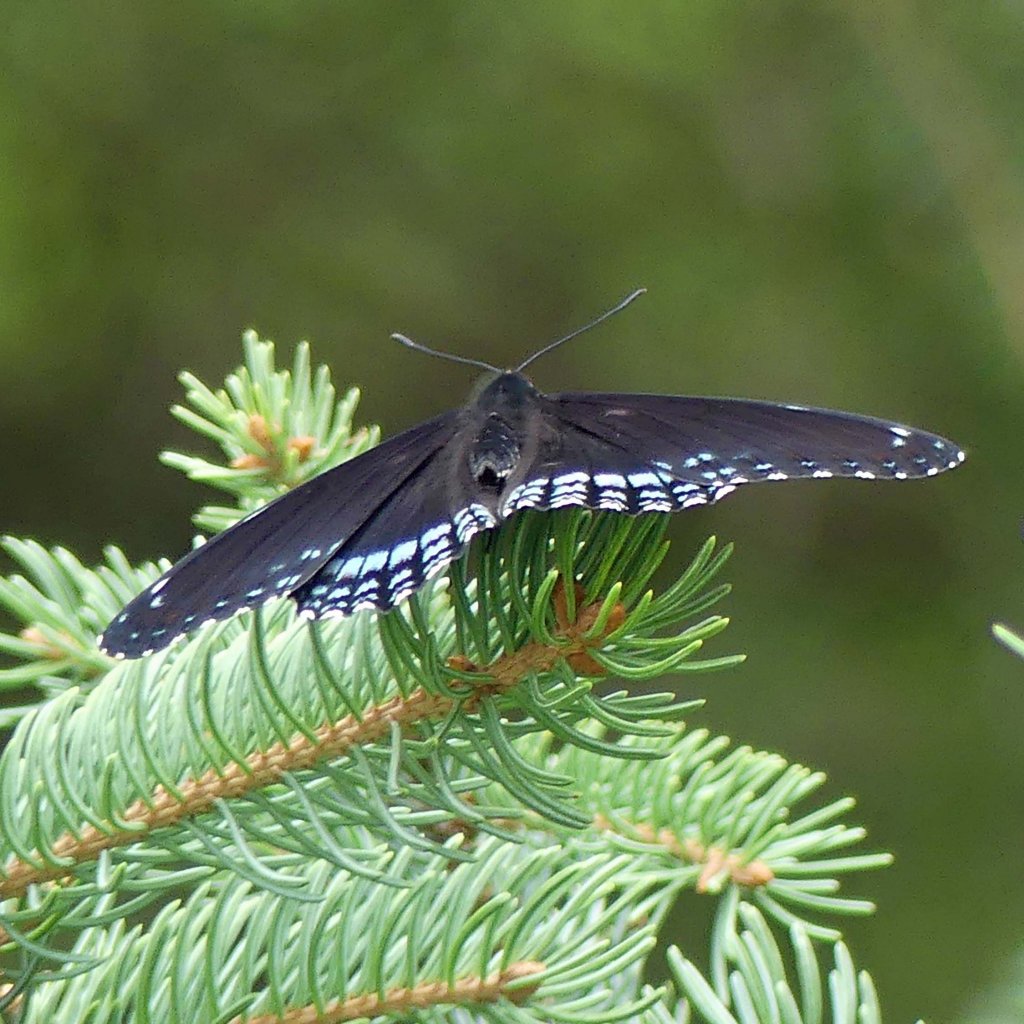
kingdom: Animalia
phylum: Arthropoda
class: Insecta
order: Lepidoptera
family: Nymphalidae
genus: Limenitis
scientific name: Limenitis astyanax
